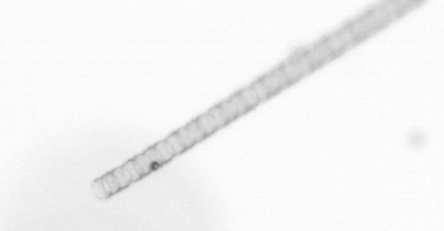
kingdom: Chromista
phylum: Ochrophyta
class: Bacillariophyceae
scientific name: Bacillariophyceae
